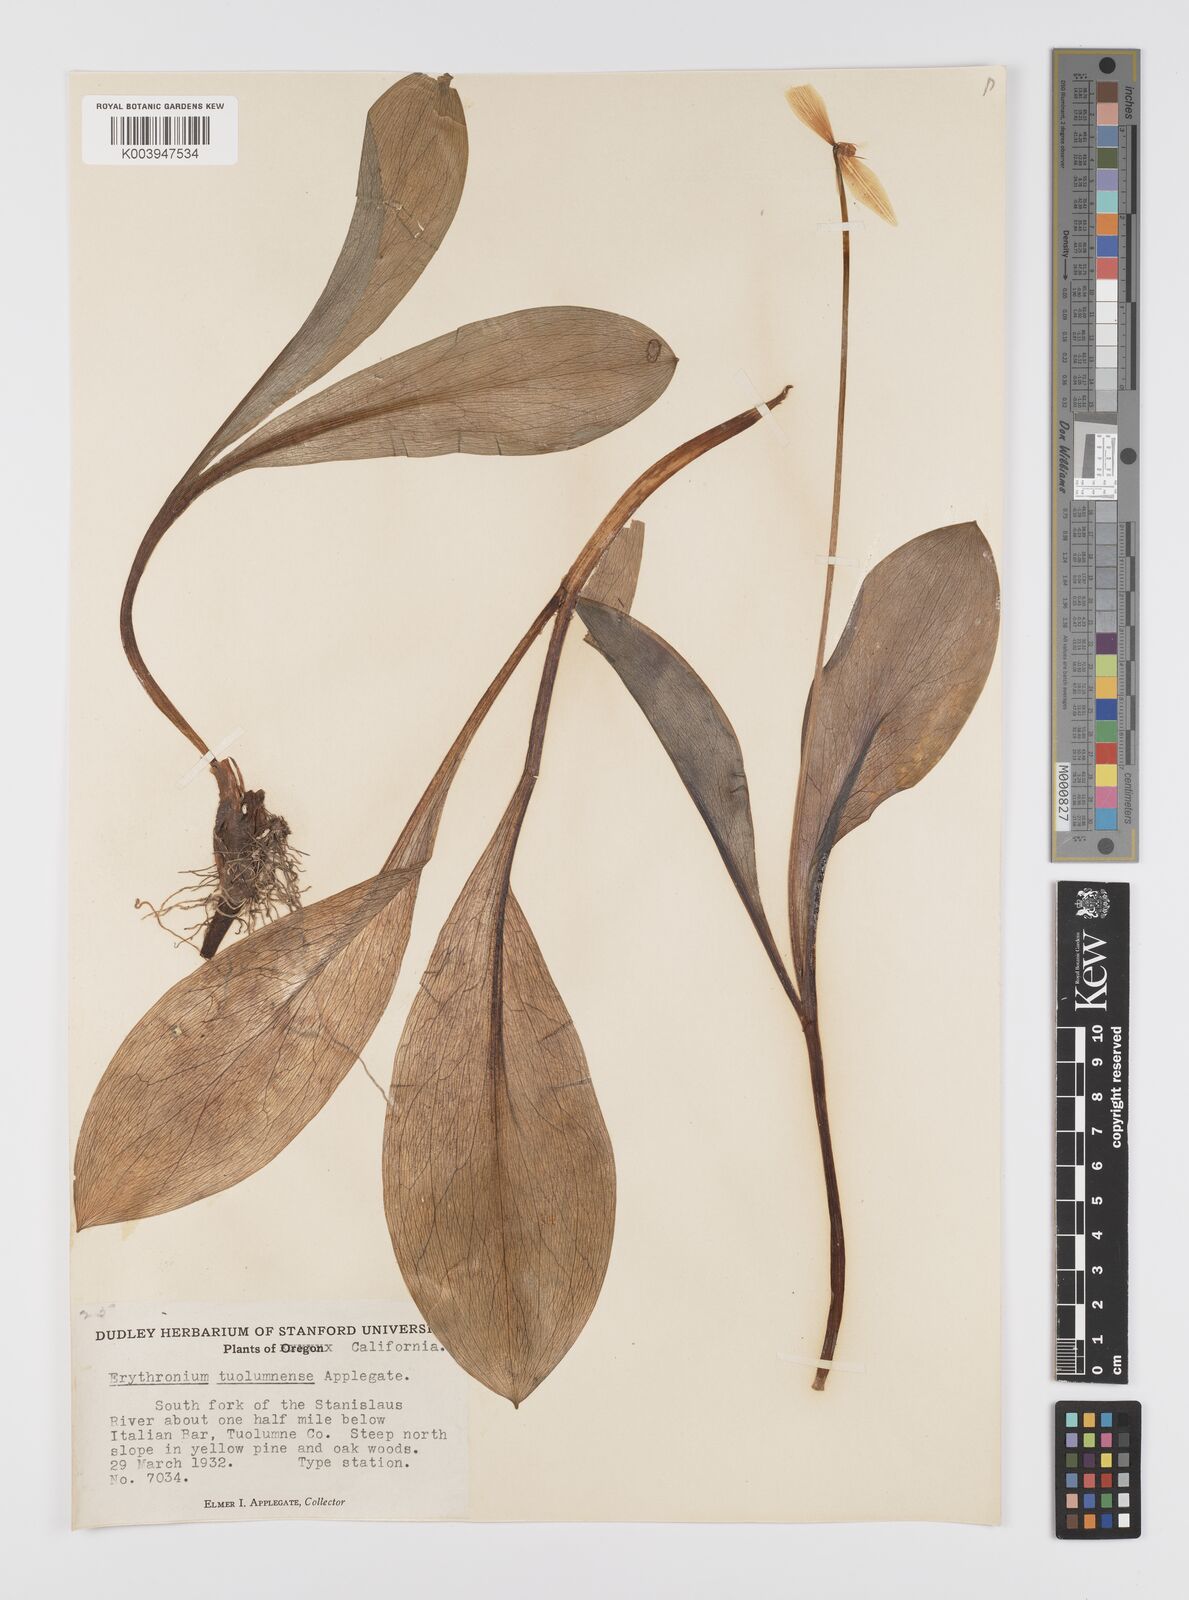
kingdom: Plantae
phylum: Tracheophyta
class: Liliopsida
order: Liliales
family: Liliaceae
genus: Erythronium
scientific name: Erythronium tuolumnense
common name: Tuolumne fawn-lily
